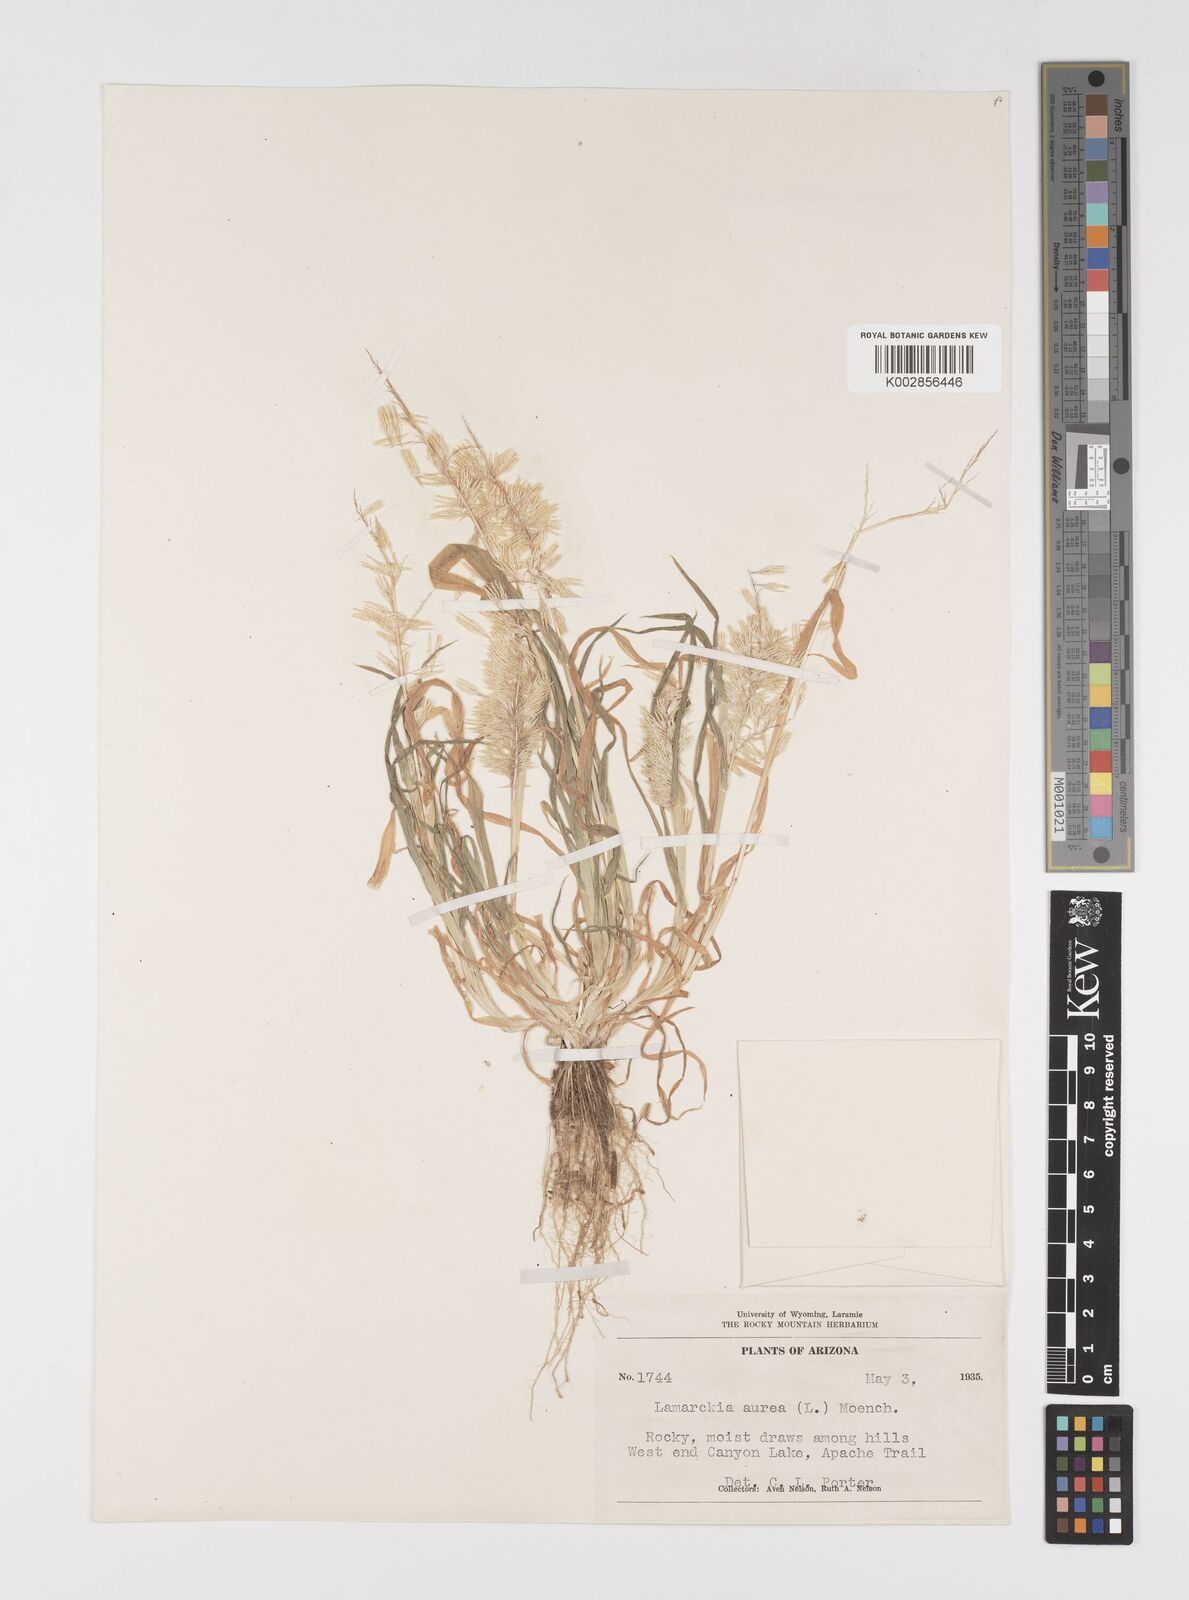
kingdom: Plantae
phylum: Tracheophyta
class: Liliopsida
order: Poales
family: Poaceae
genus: Lamarckia
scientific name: Lamarckia aurea
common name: Golden dog's-tail
